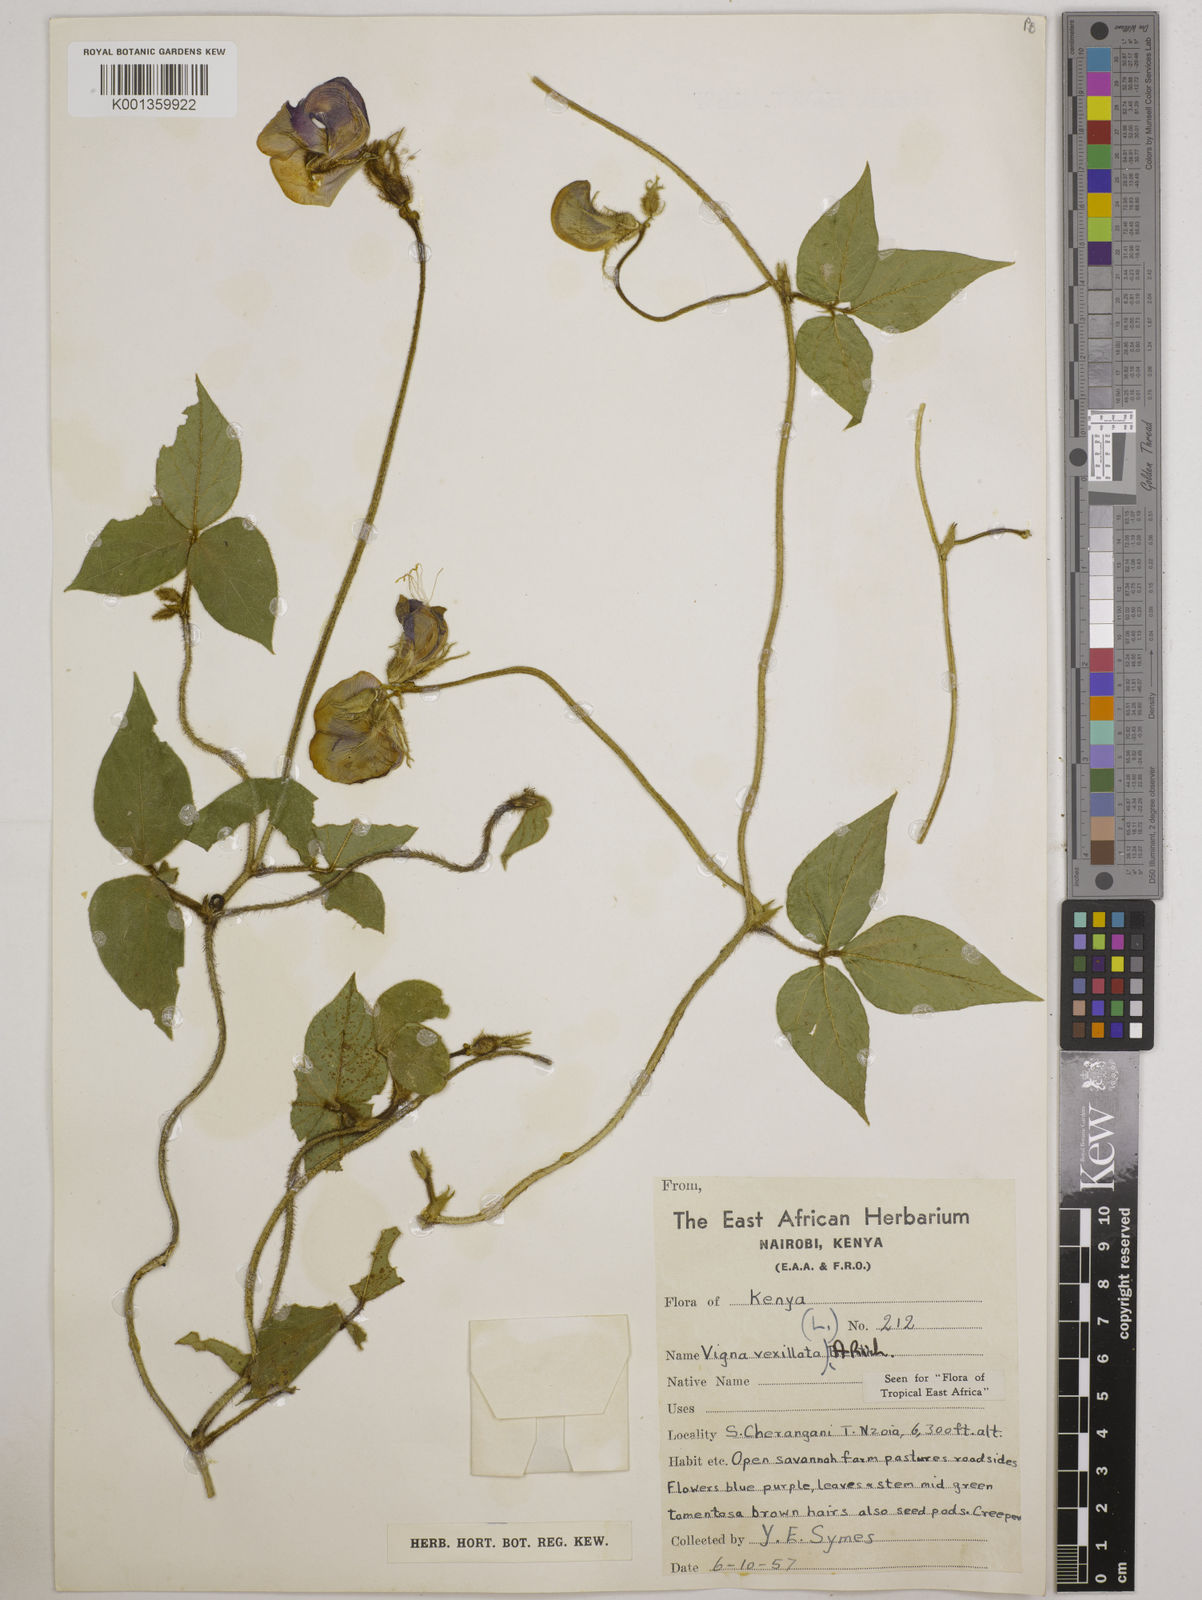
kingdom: Plantae
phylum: Tracheophyta
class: Magnoliopsida
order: Fabales
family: Fabaceae
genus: Vigna
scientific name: Vigna vexillata
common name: Zombi pea
